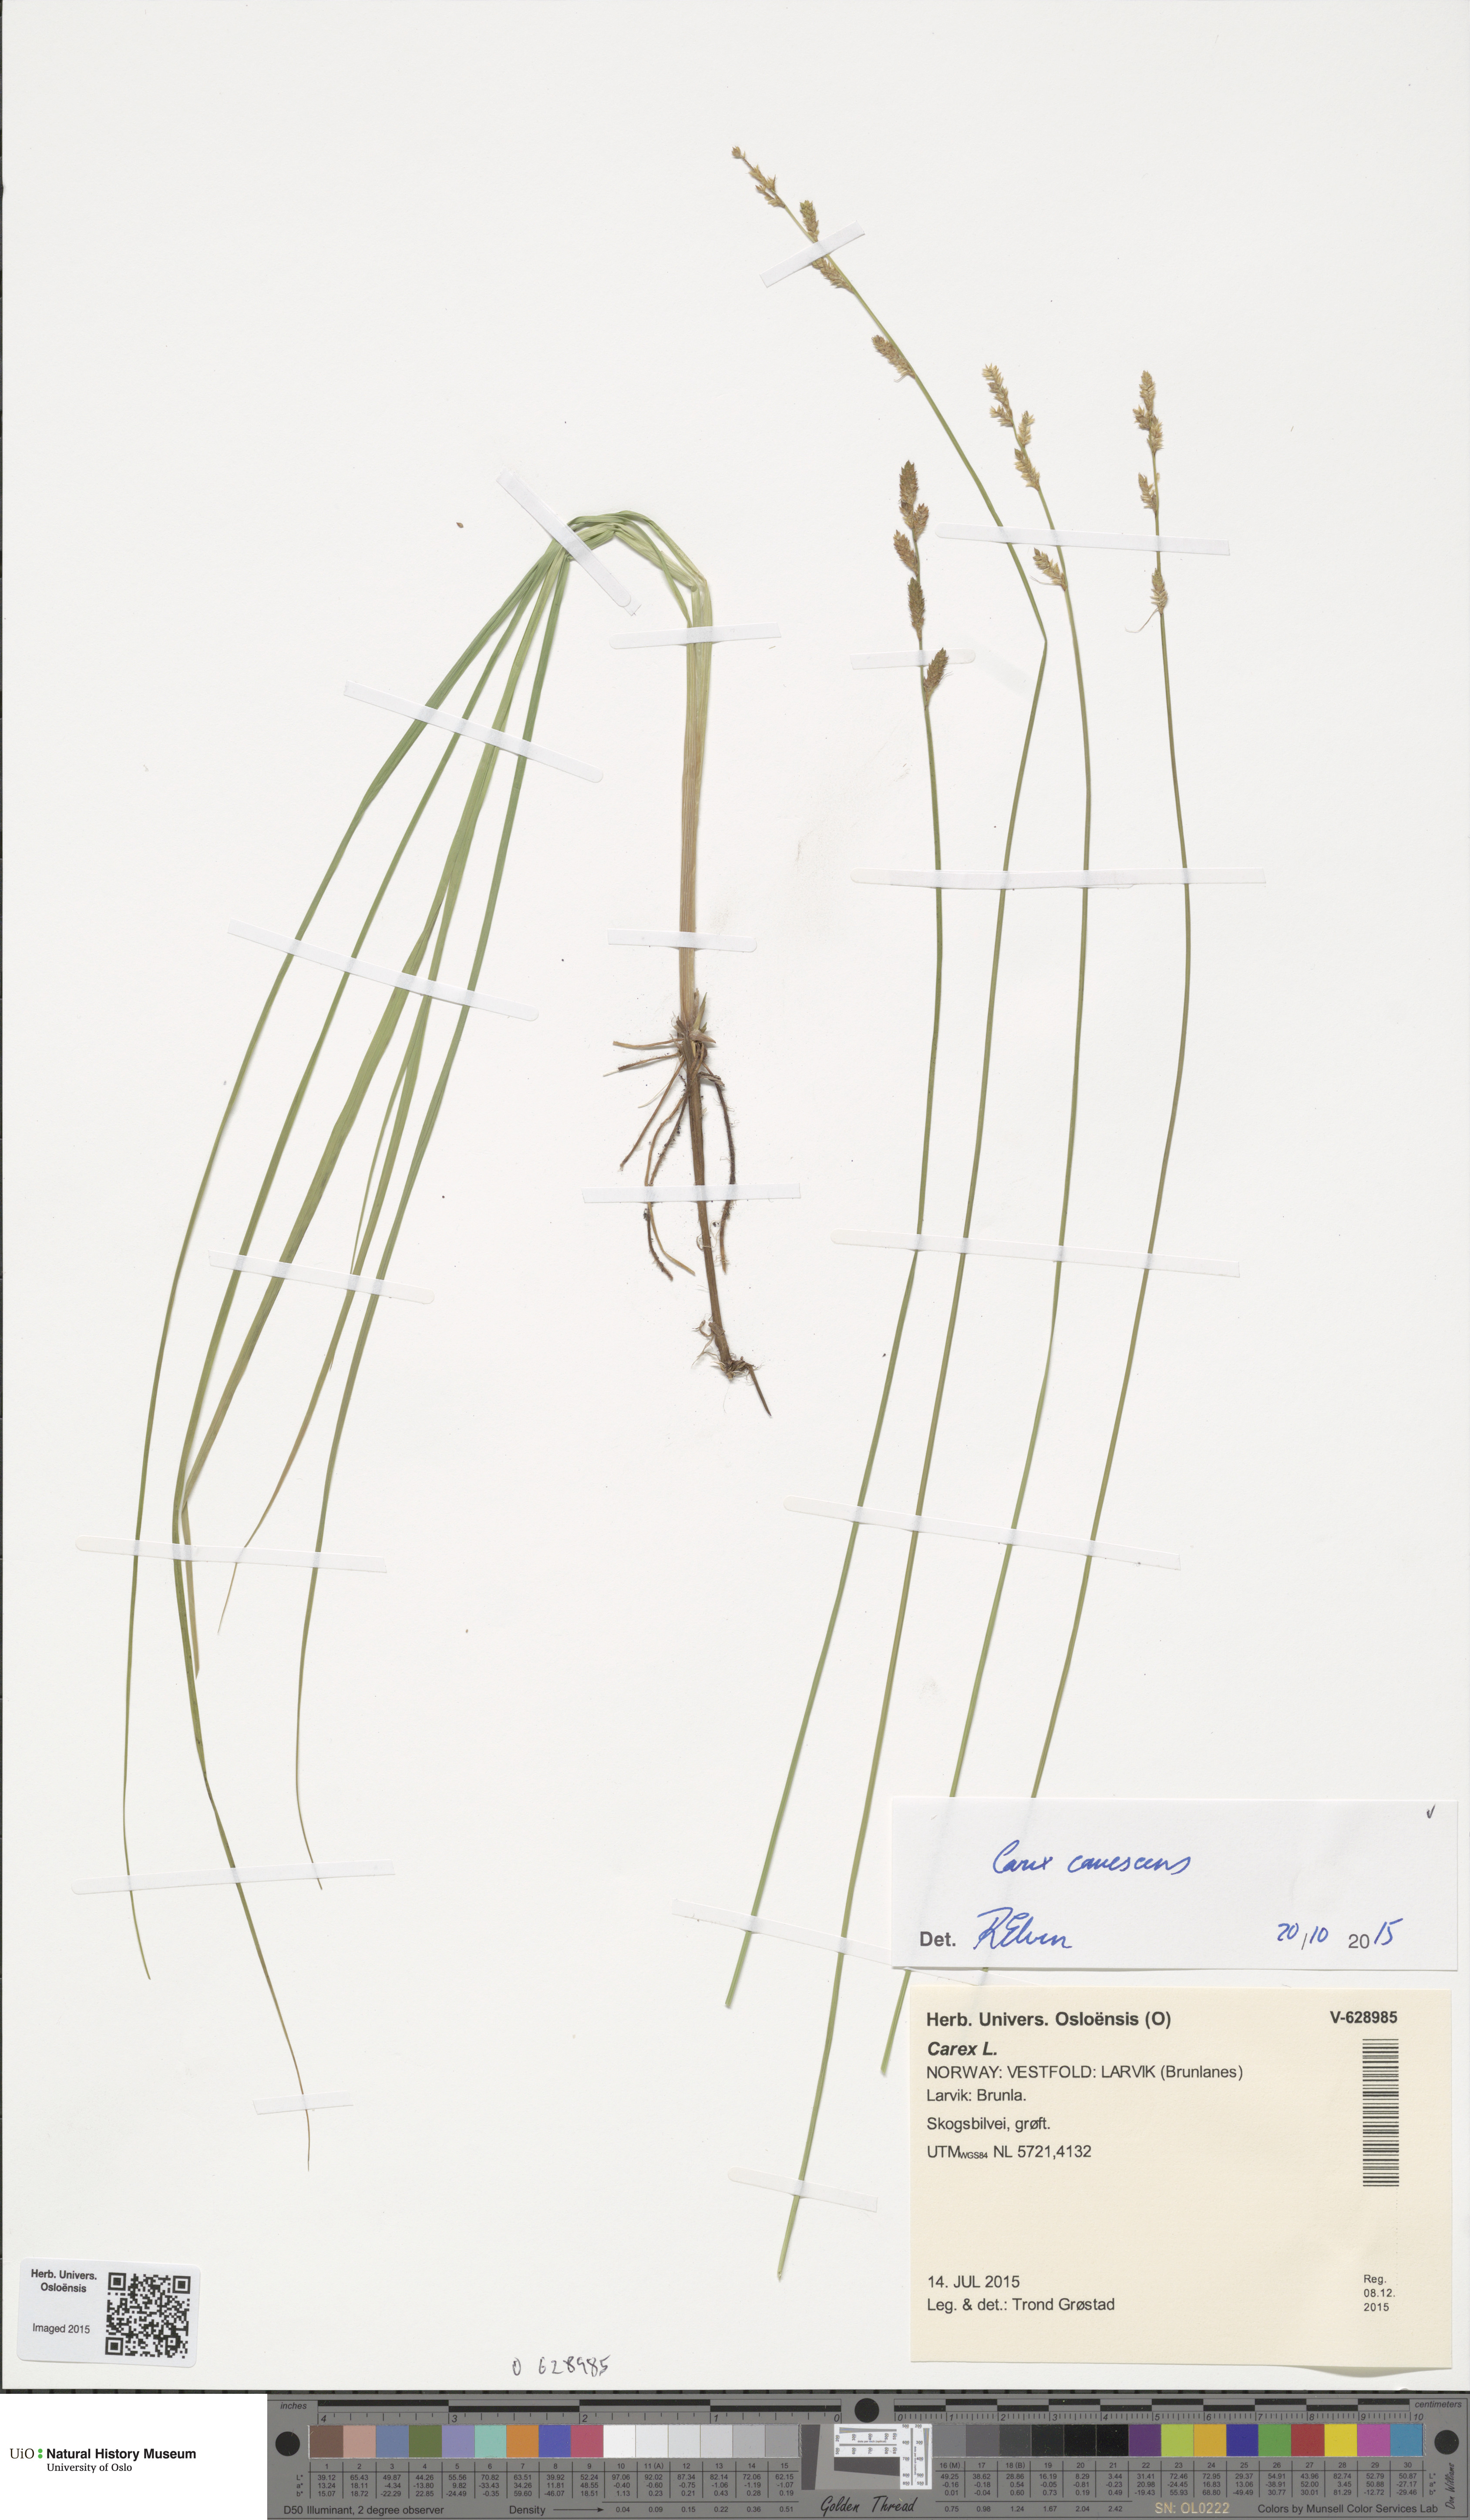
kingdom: Plantae
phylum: Tracheophyta
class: Liliopsida
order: Poales
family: Cyperaceae
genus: Carex
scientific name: Carex canescens
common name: White sedge
